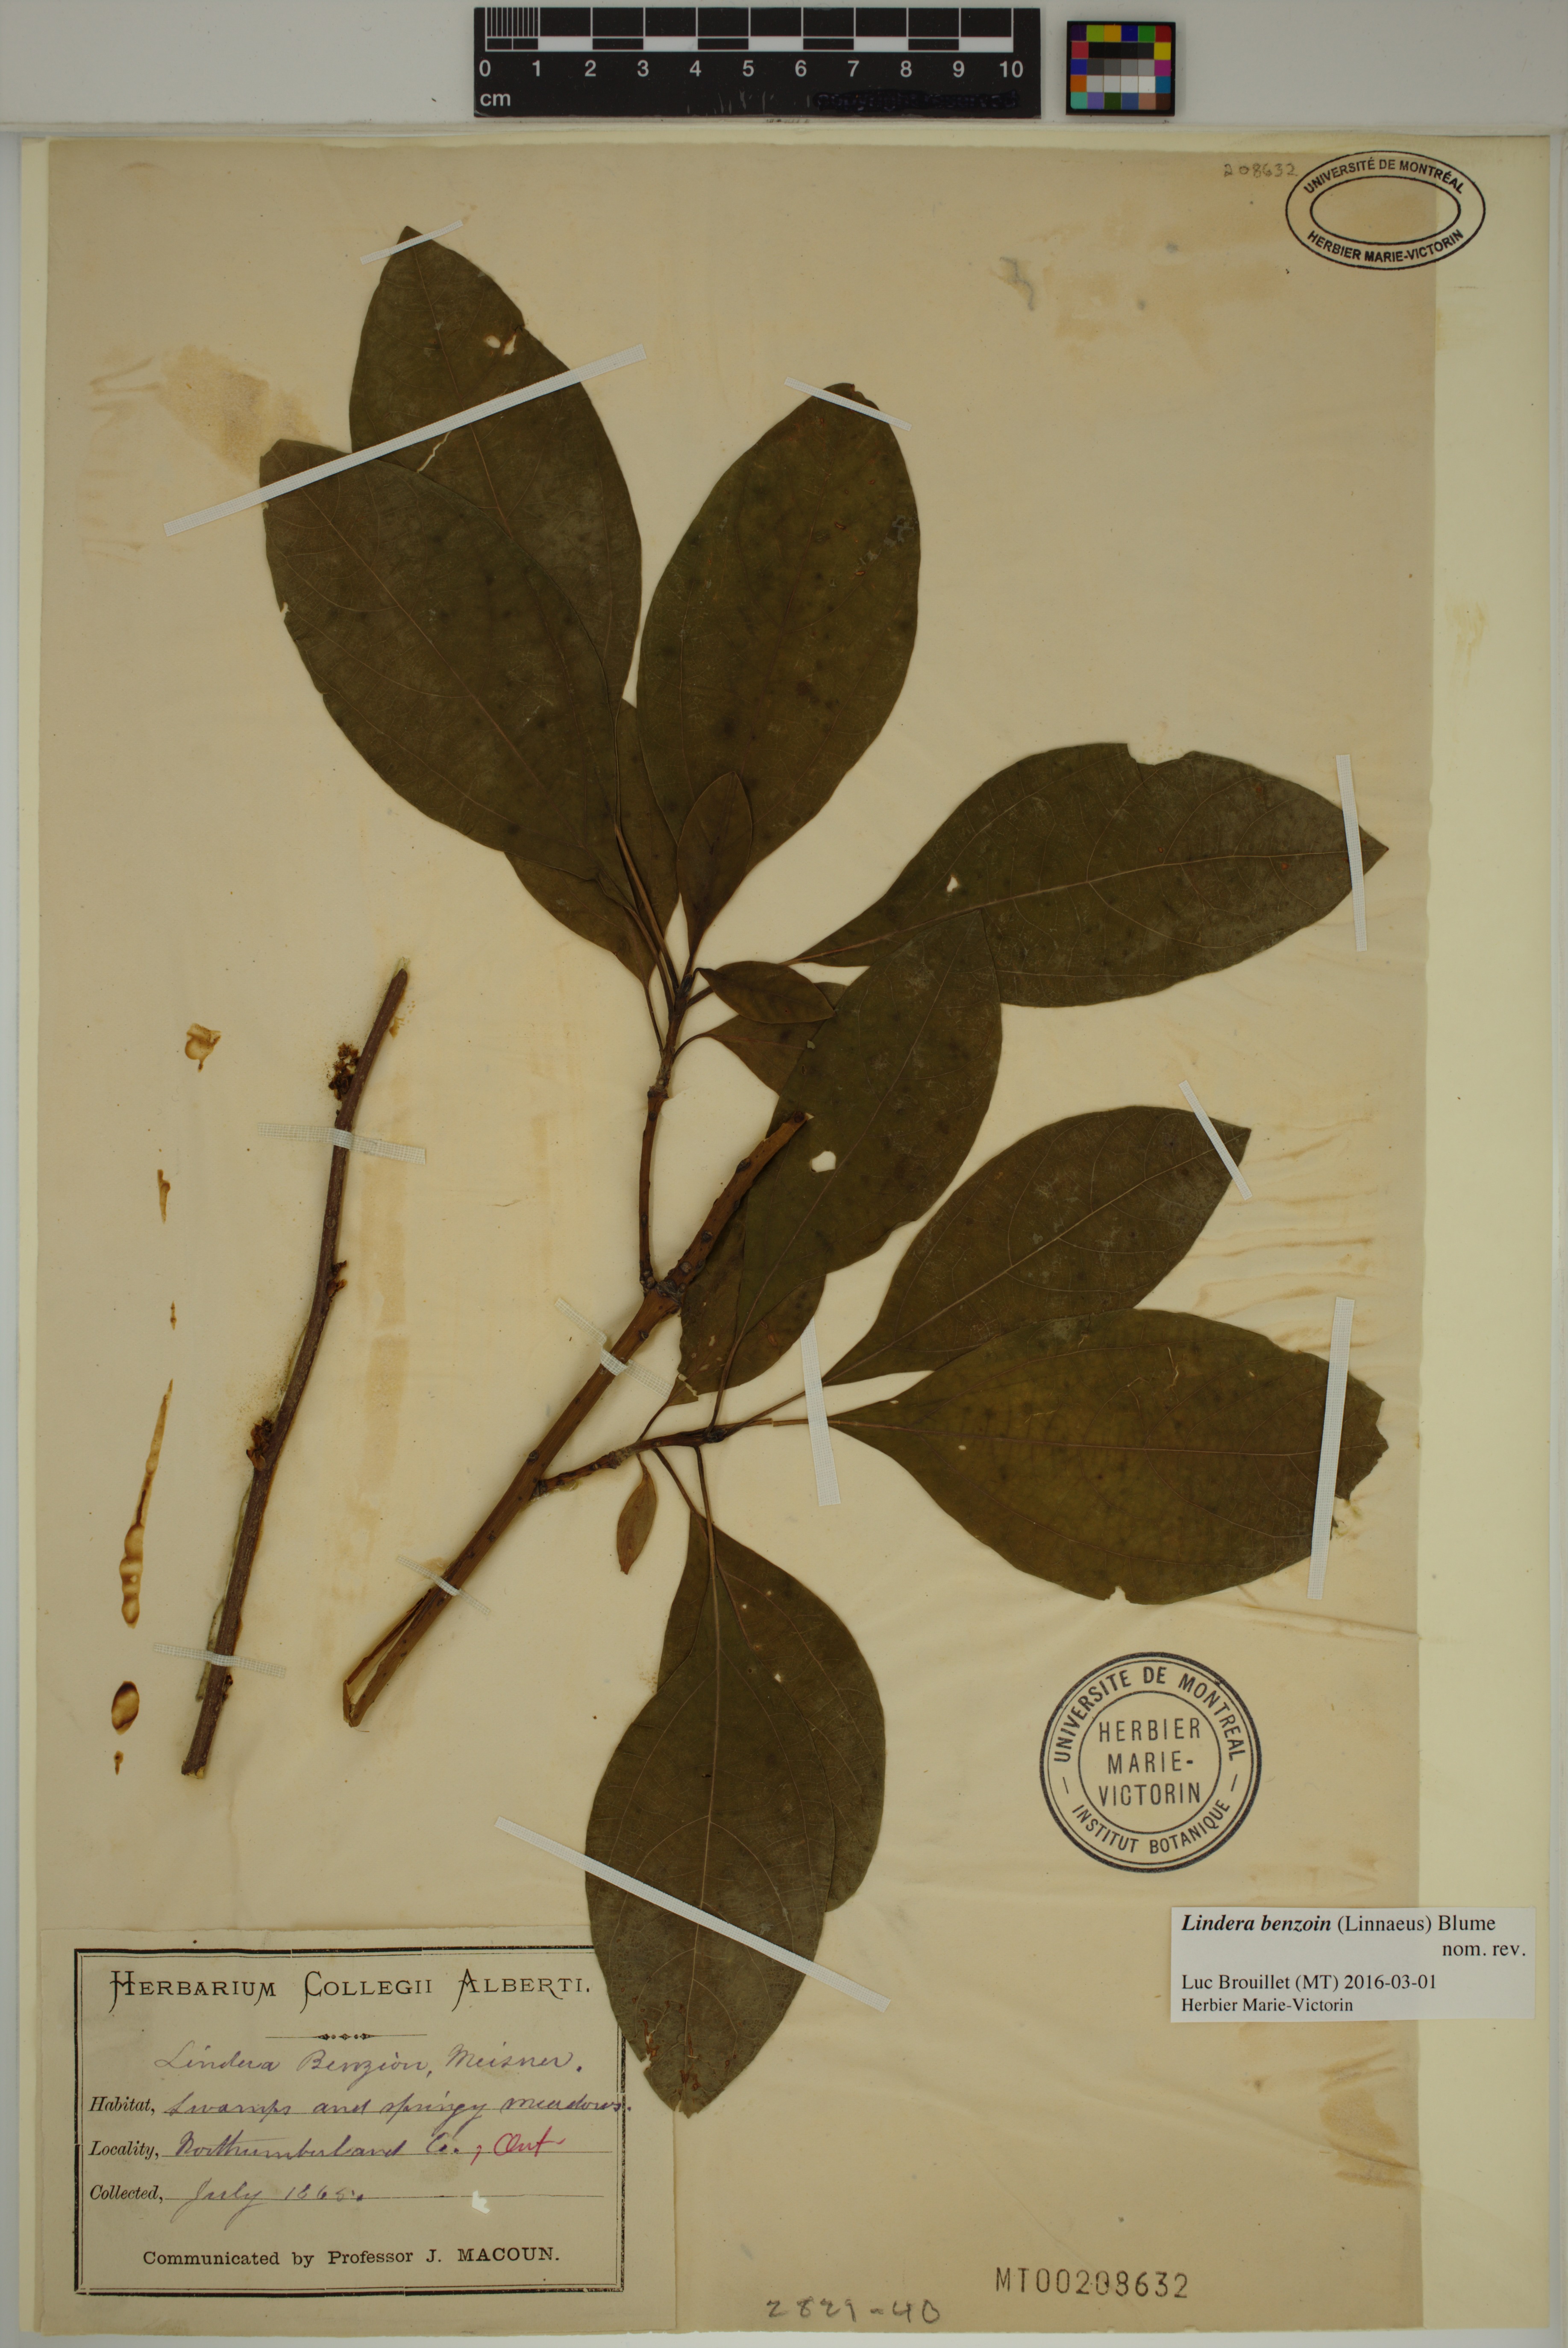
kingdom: Plantae
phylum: Tracheophyta
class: Magnoliopsida
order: Laurales
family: Lauraceae
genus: Lindera
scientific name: Lindera benzoin
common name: Spicebush
